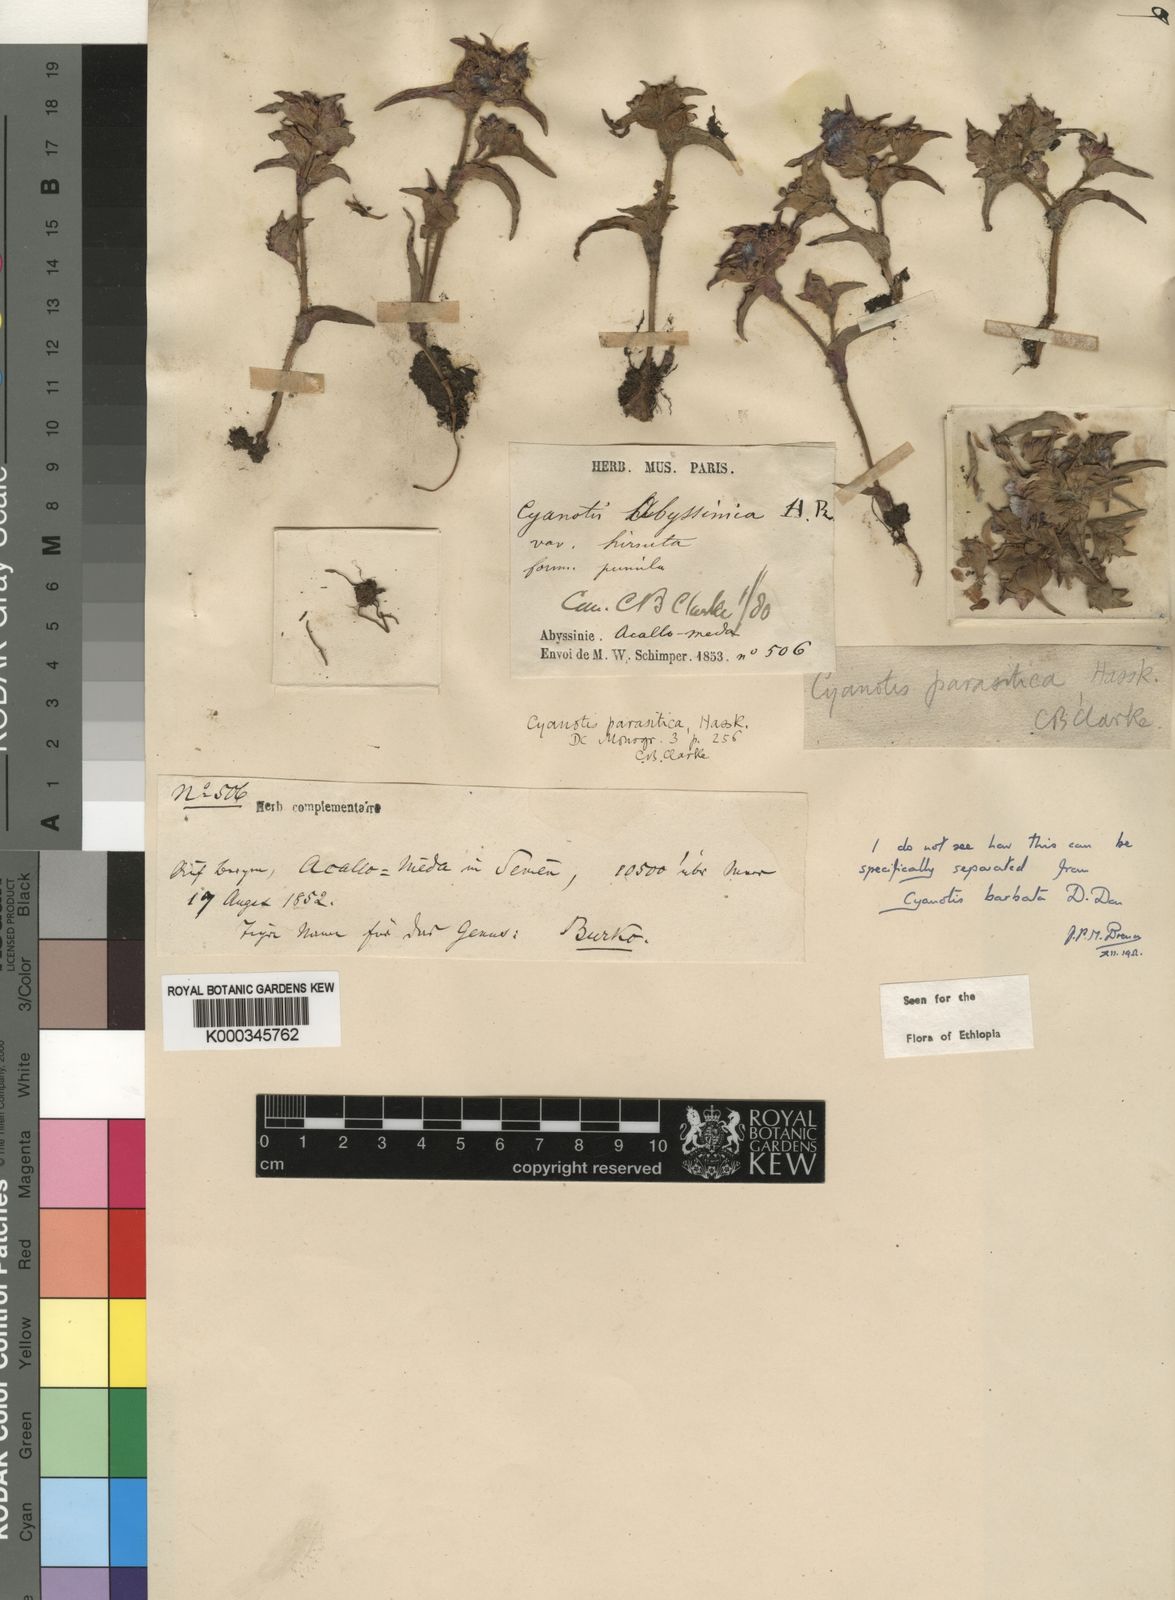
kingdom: Plantae
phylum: Tracheophyta
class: Liliopsida
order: Commelinales
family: Commelinaceae
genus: Cyanotis
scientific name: Cyanotis vaga
